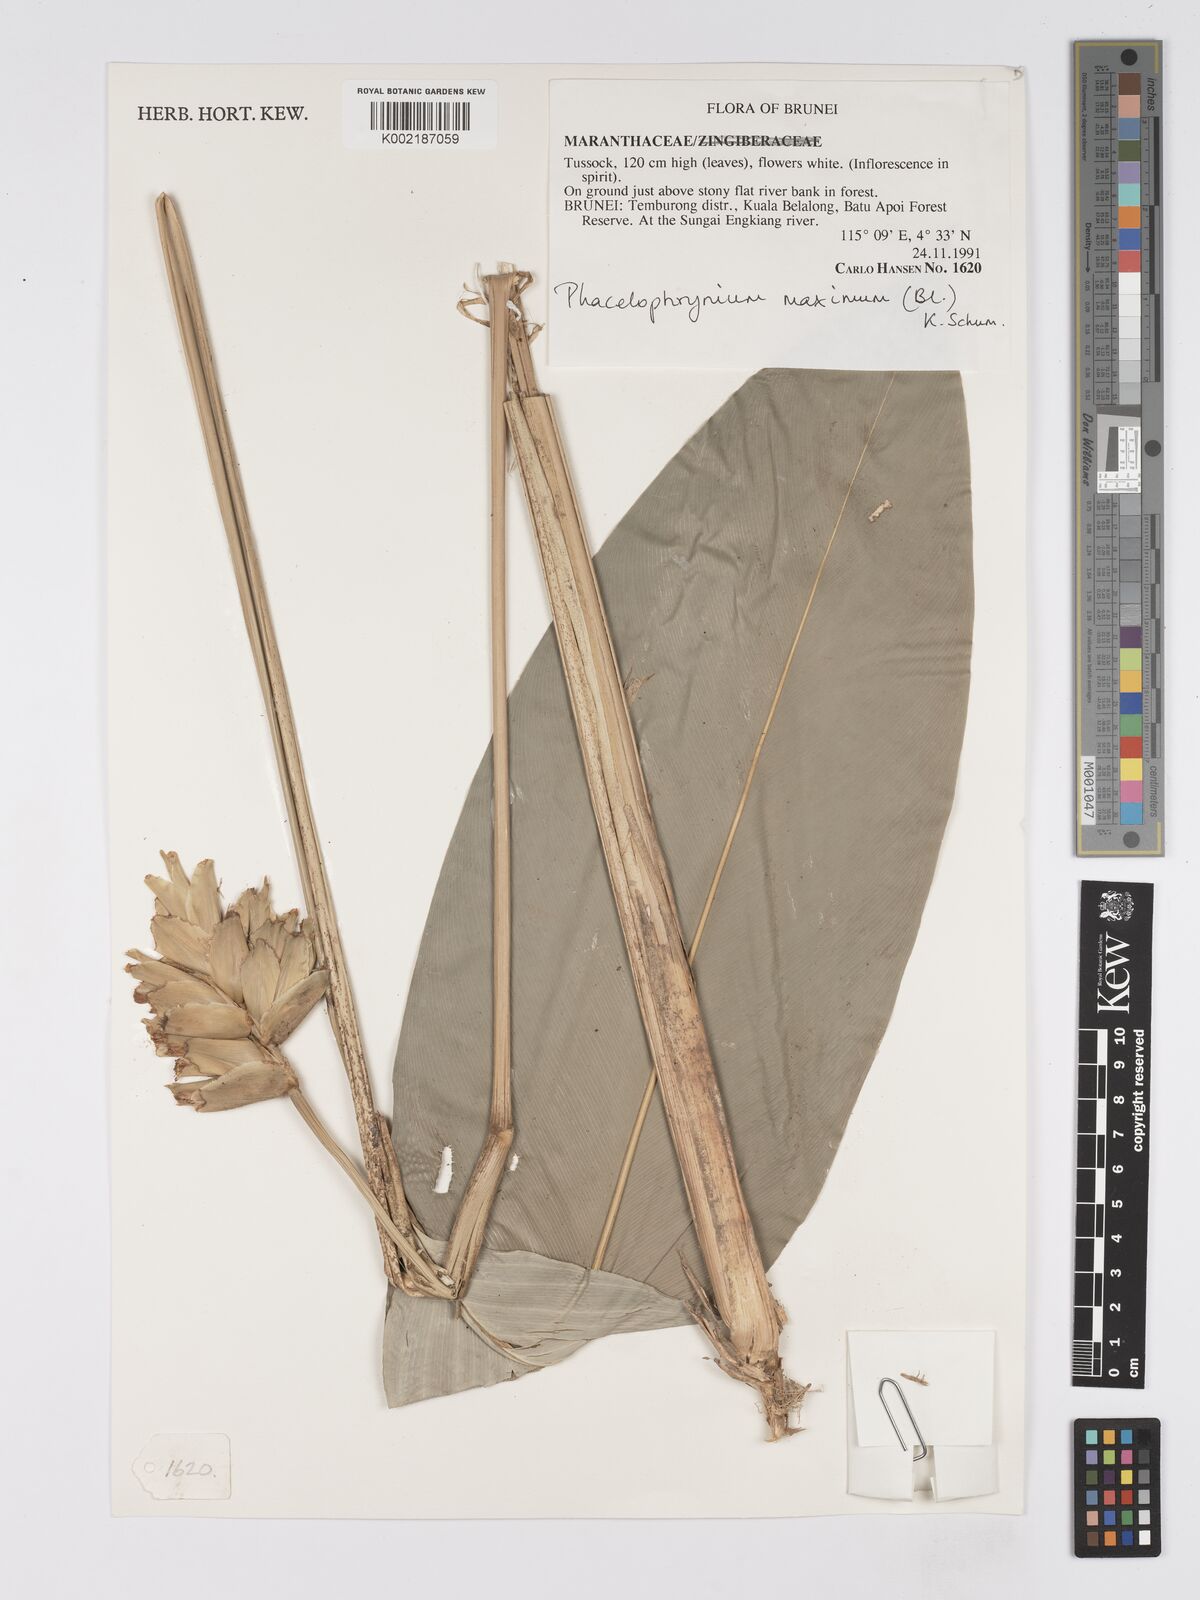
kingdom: Plantae
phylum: Tracheophyta
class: Liliopsida
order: Zingiberales
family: Marantaceae
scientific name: Marantaceae
